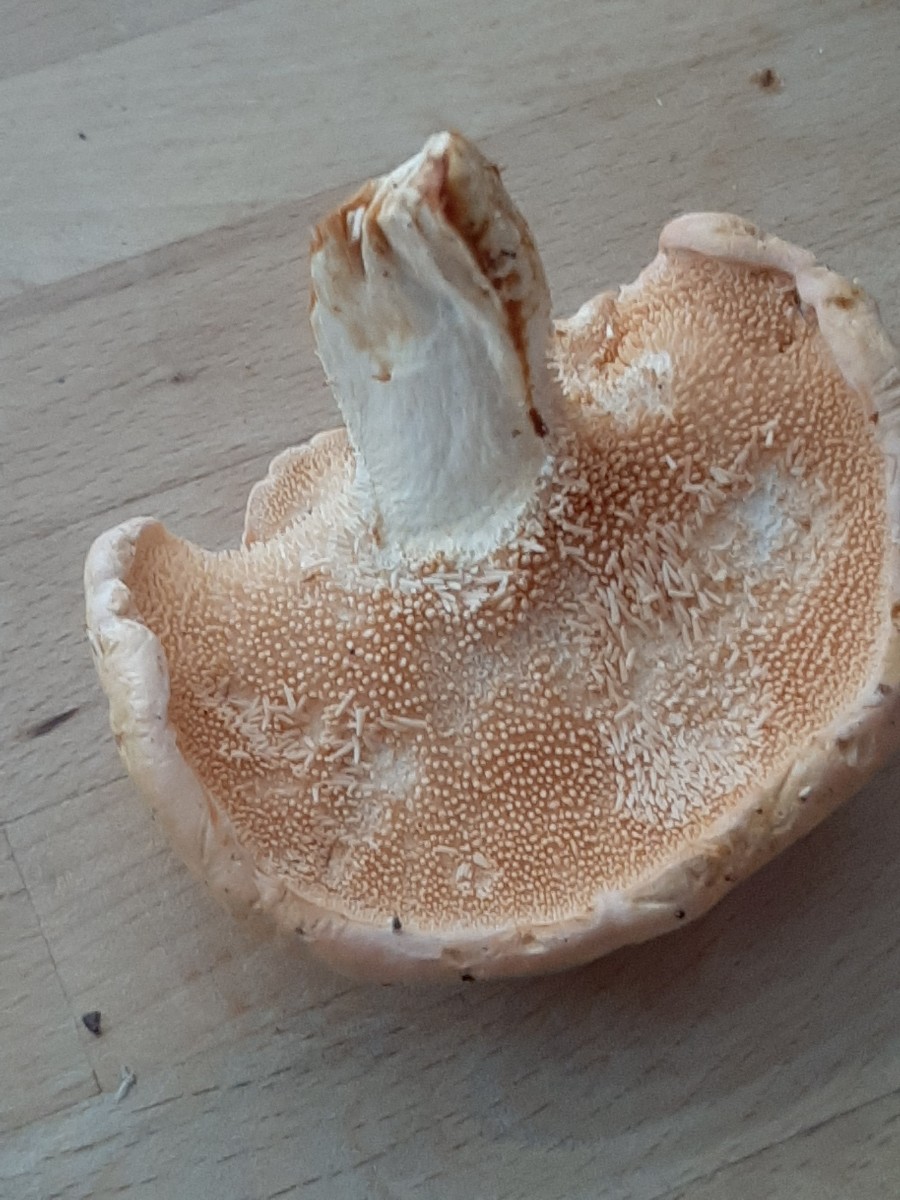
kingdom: Fungi
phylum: Basidiomycota
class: Agaricomycetes
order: Cantharellales
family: Hydnaceae
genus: Hydnum
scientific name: Hydnum
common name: pigsvamp
